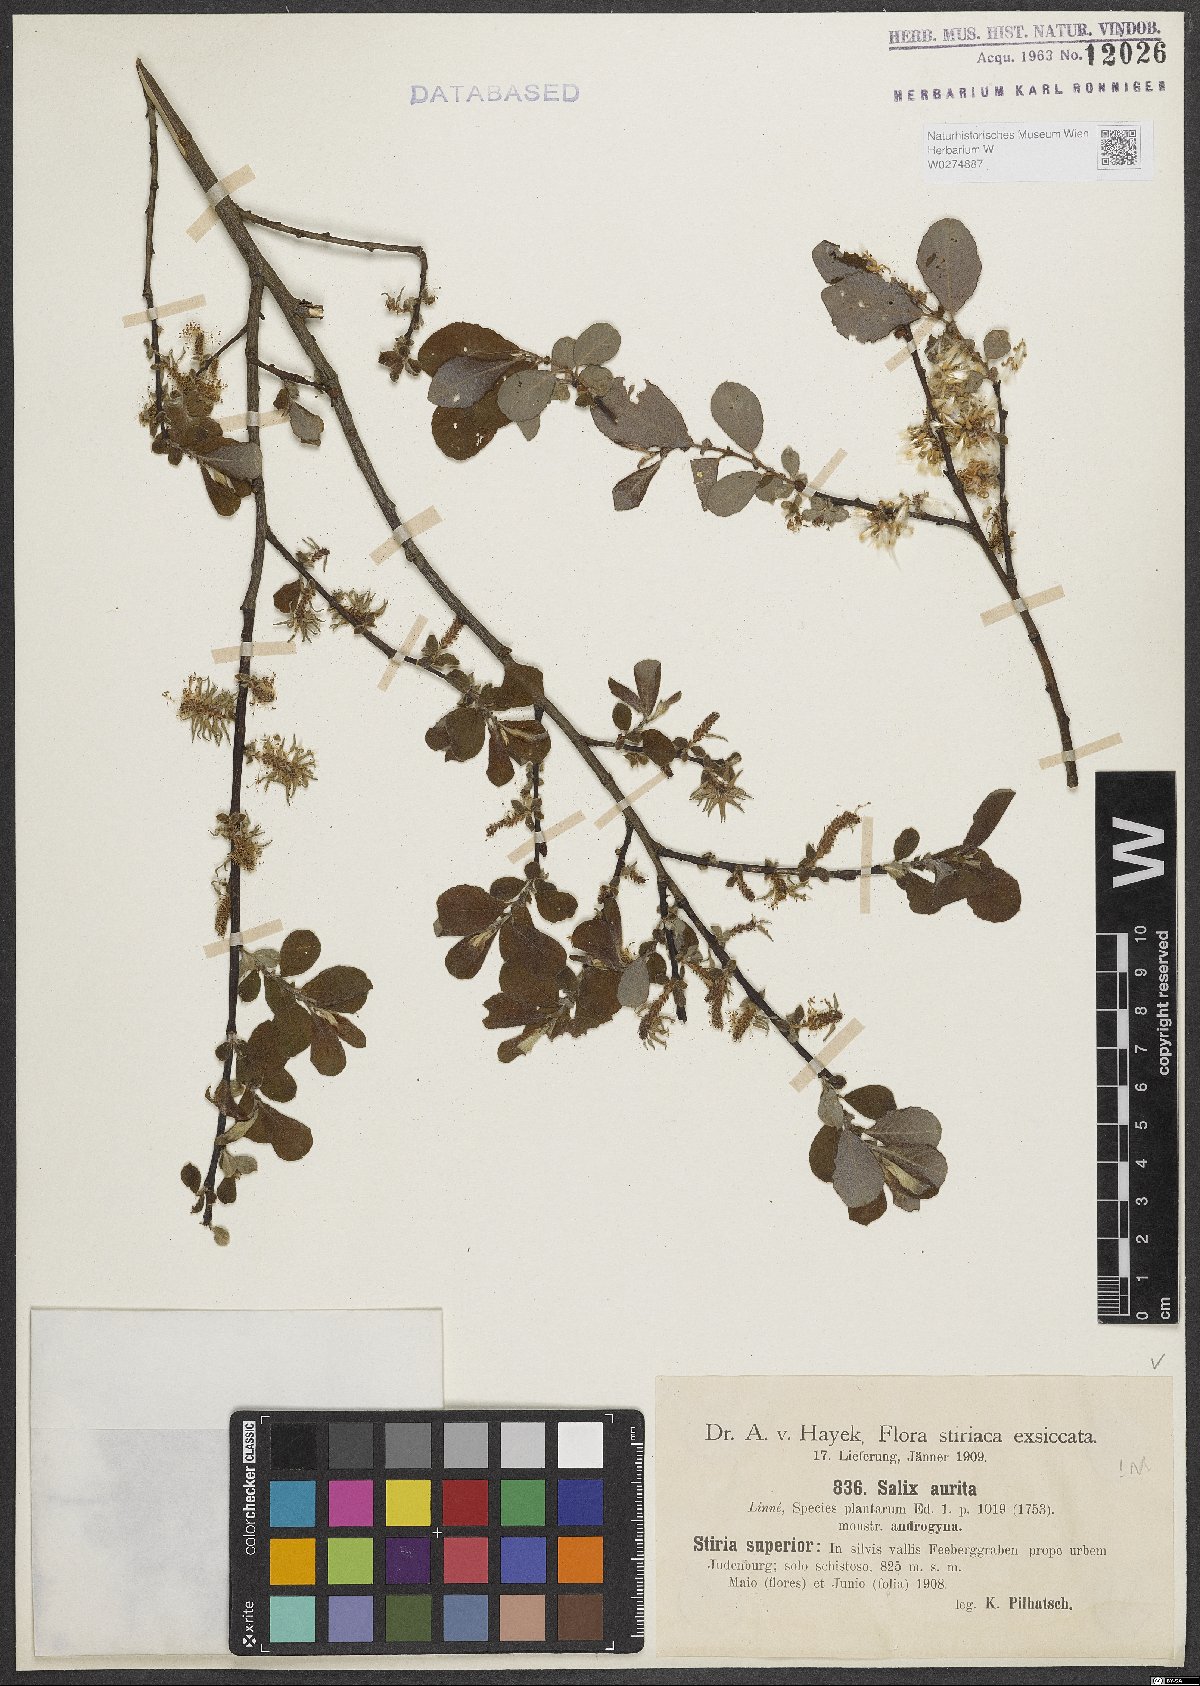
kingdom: Plantae
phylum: Tracheophyta
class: Magnoliopsida
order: Malpighiales
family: Salicaceae
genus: Salix
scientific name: Salix aurita
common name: Eared willow
